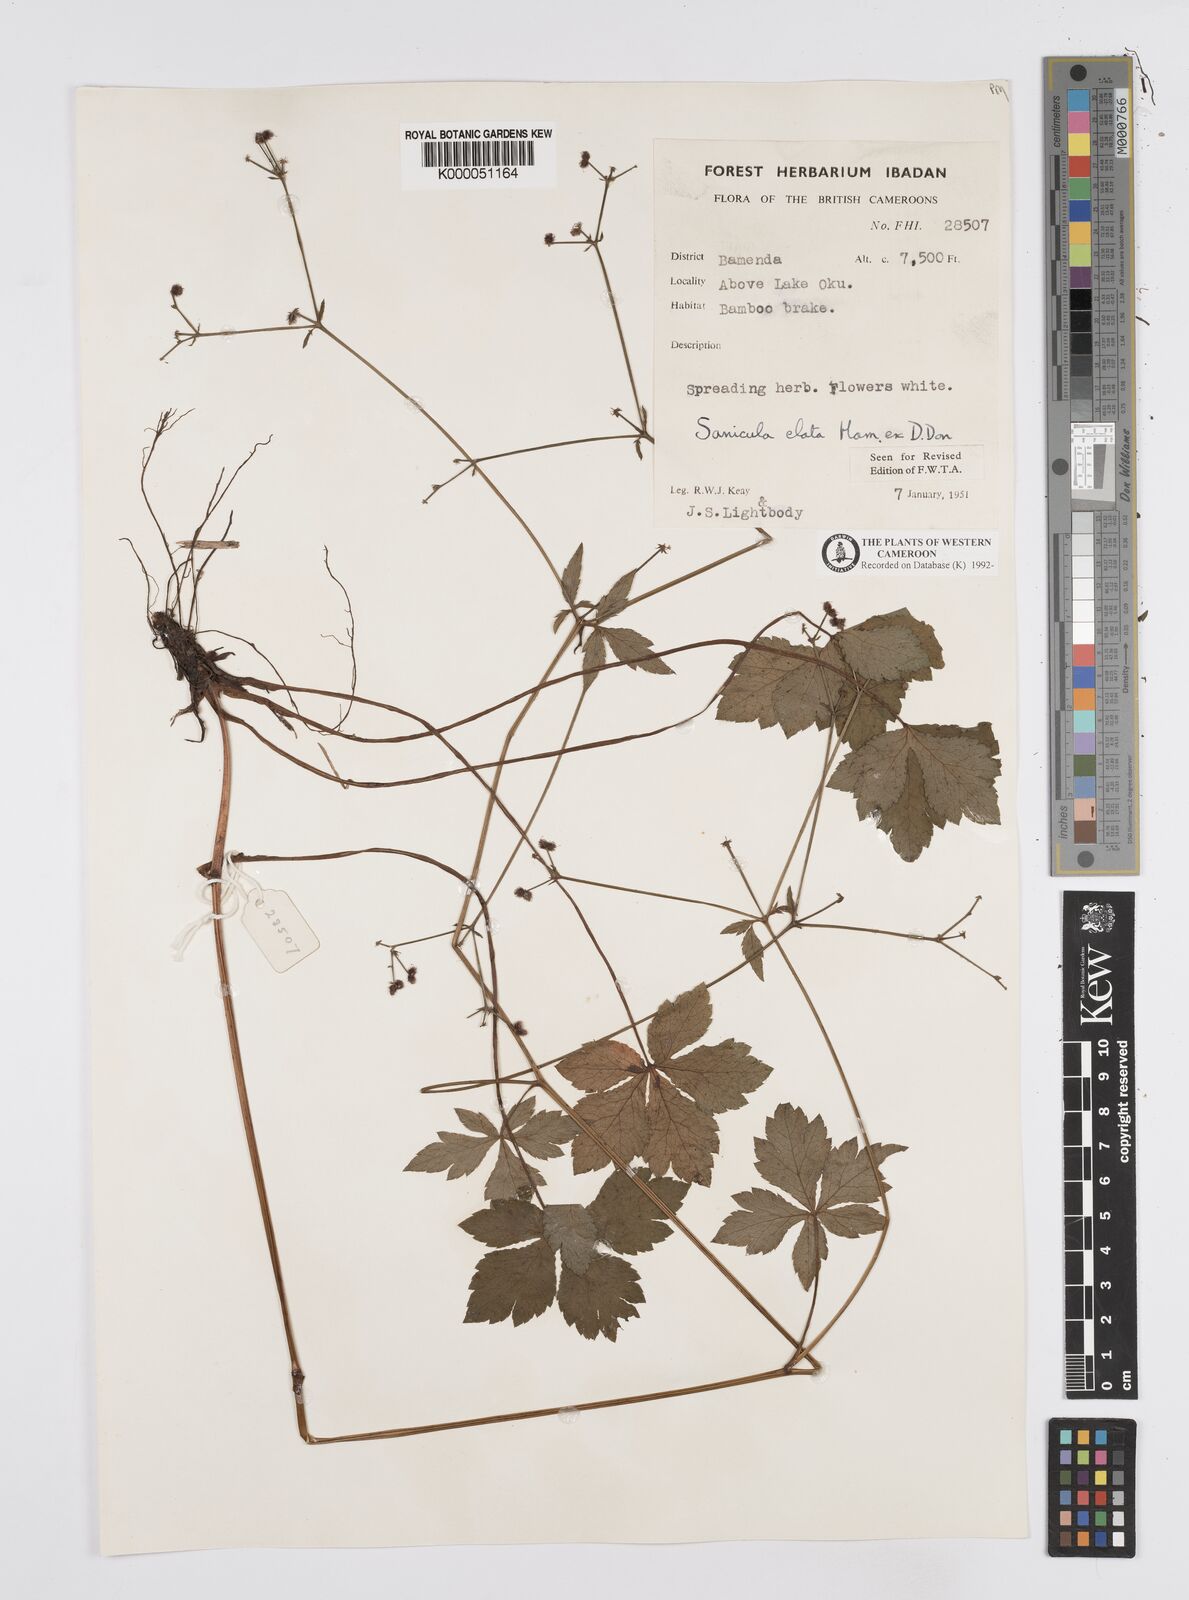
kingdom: Plantae
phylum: Tracheophyta
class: Magnoliopsida
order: Apiales
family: Apiaceae
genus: Sanicula
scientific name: Sanicula
